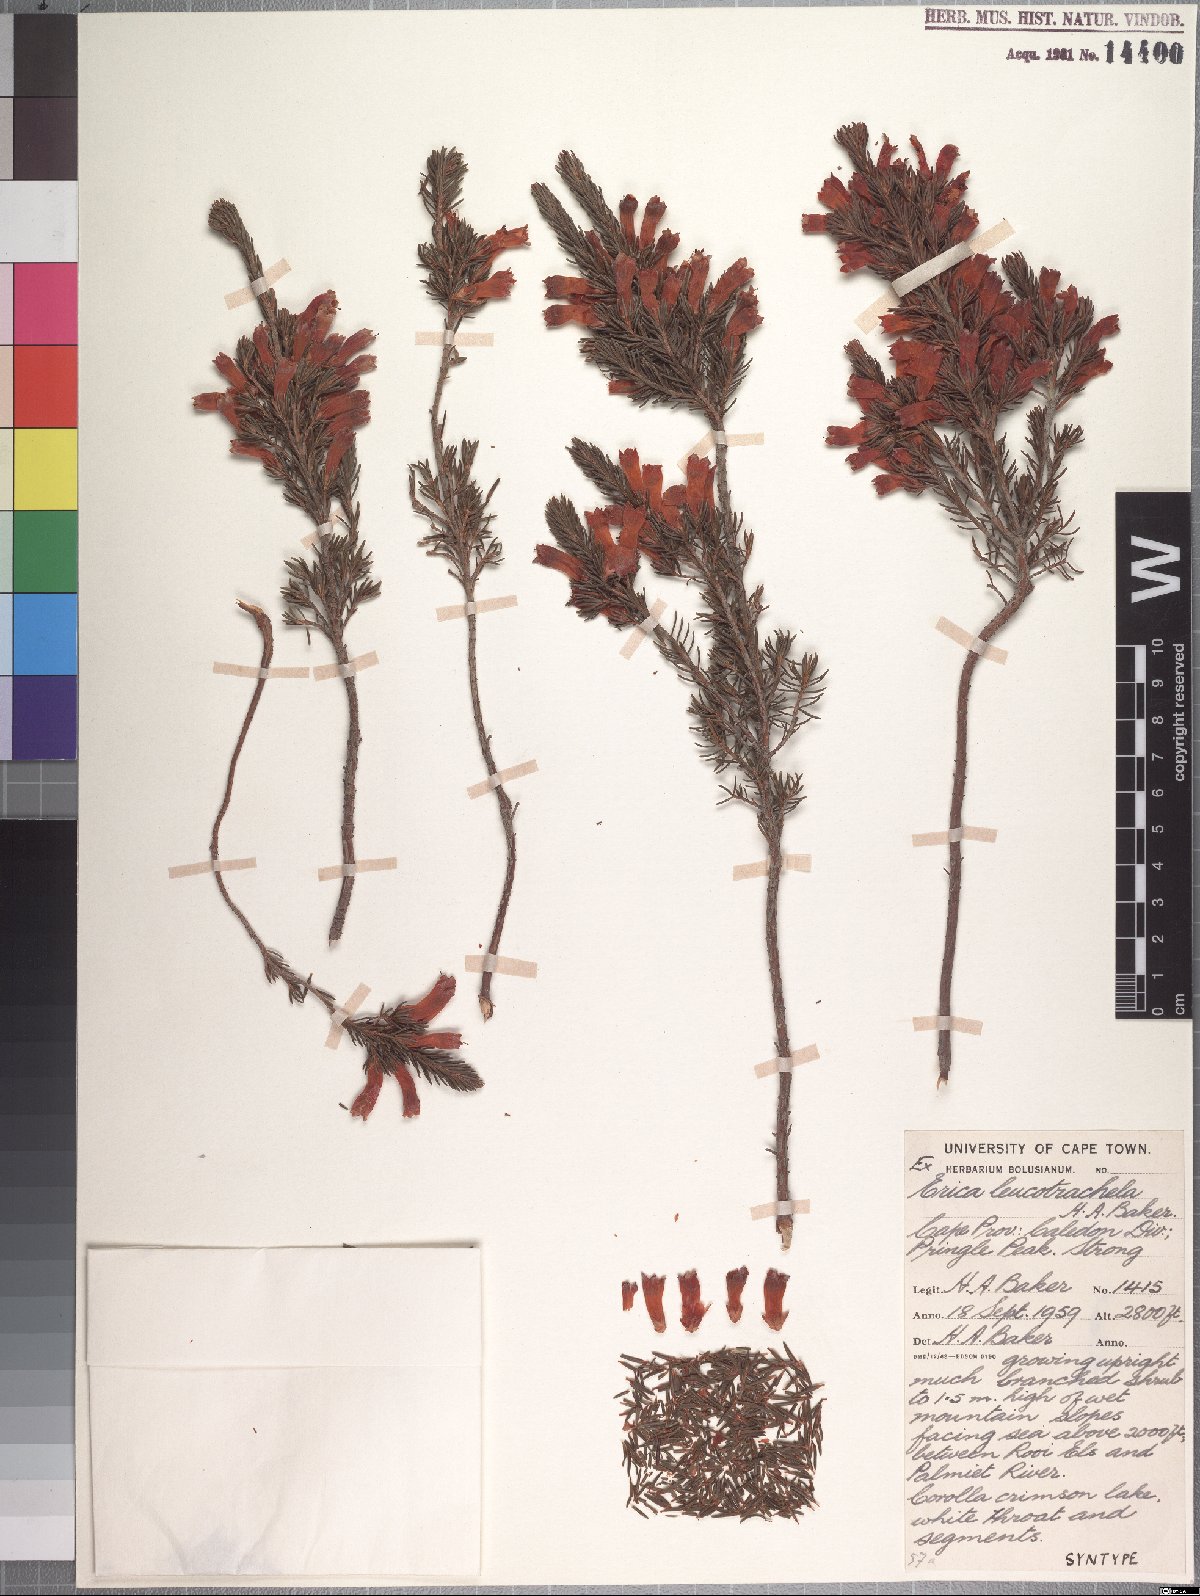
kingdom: Plantae
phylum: Tracheophyta
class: Magnoliopsida
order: Ericales
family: Ericaceae
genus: Erica
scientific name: Erica leucotrachela
